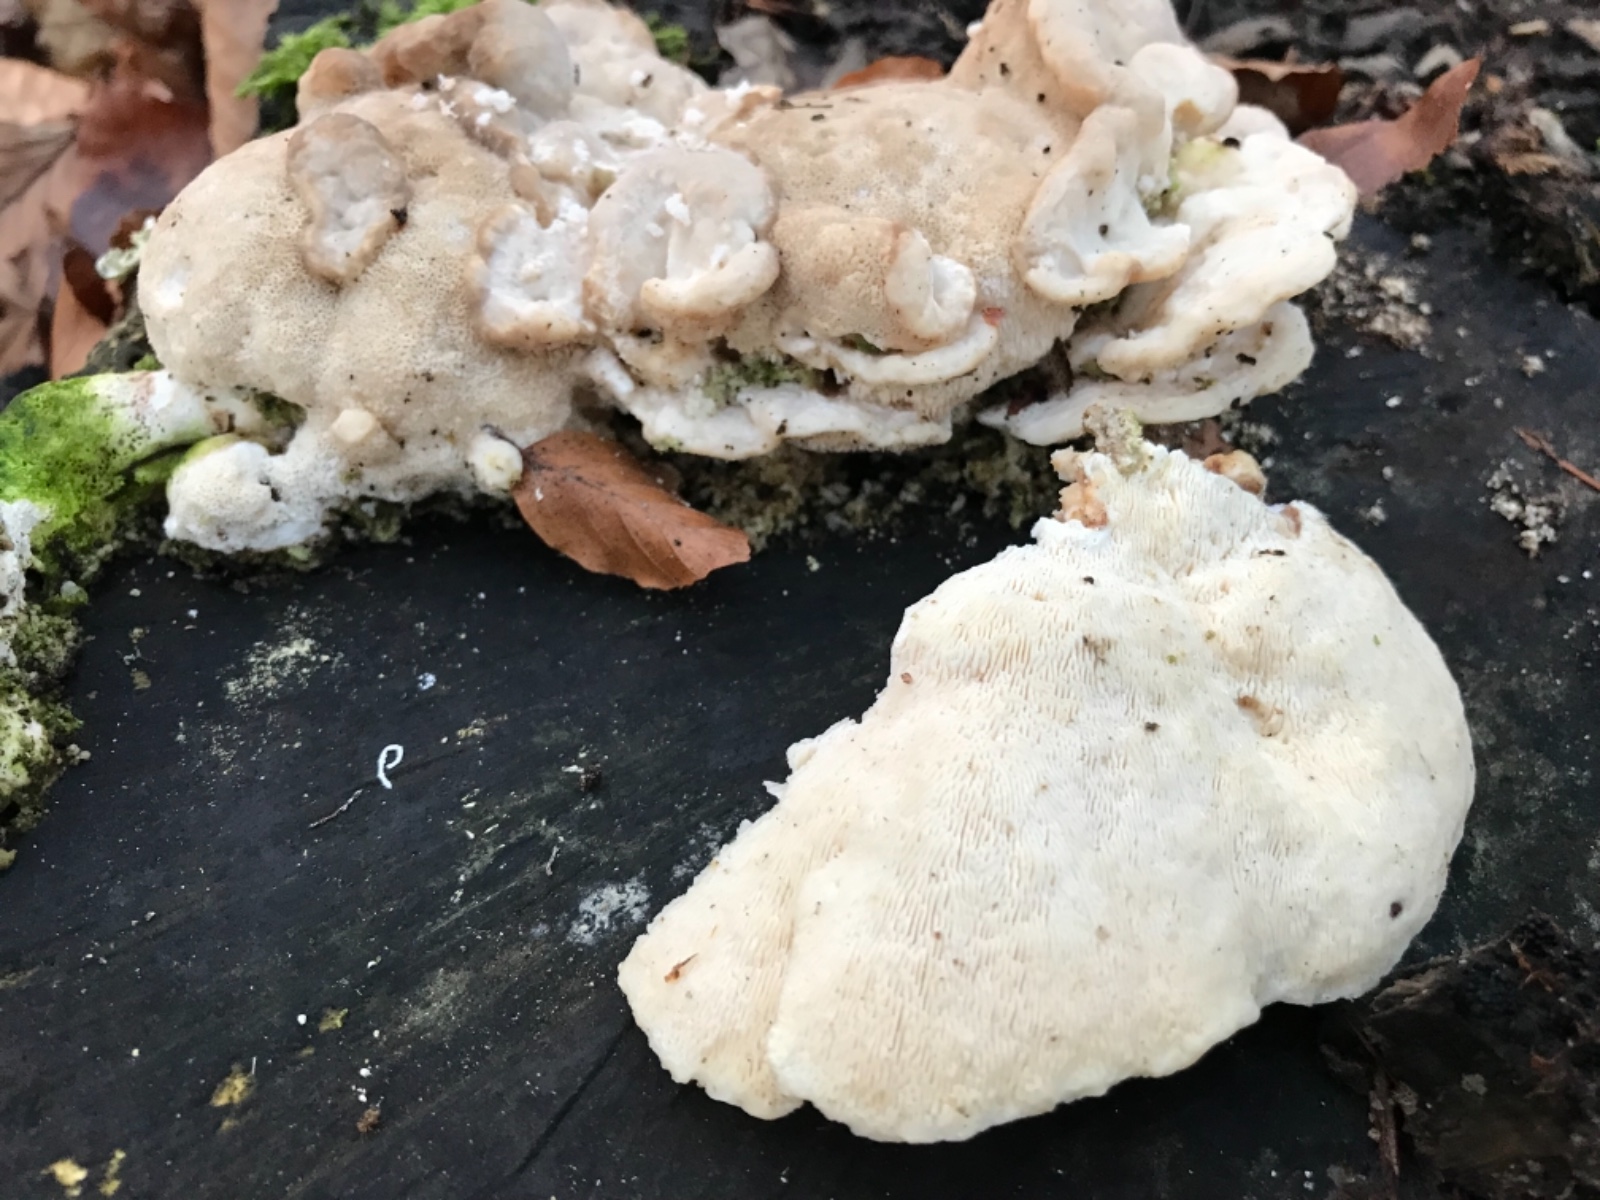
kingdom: Fungi
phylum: Basidiomycota
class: Agaricomycetes
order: Polyporales
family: Polyporaceae
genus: Trametes
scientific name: Trametes gibbosa
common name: puklet læderporesvamp
